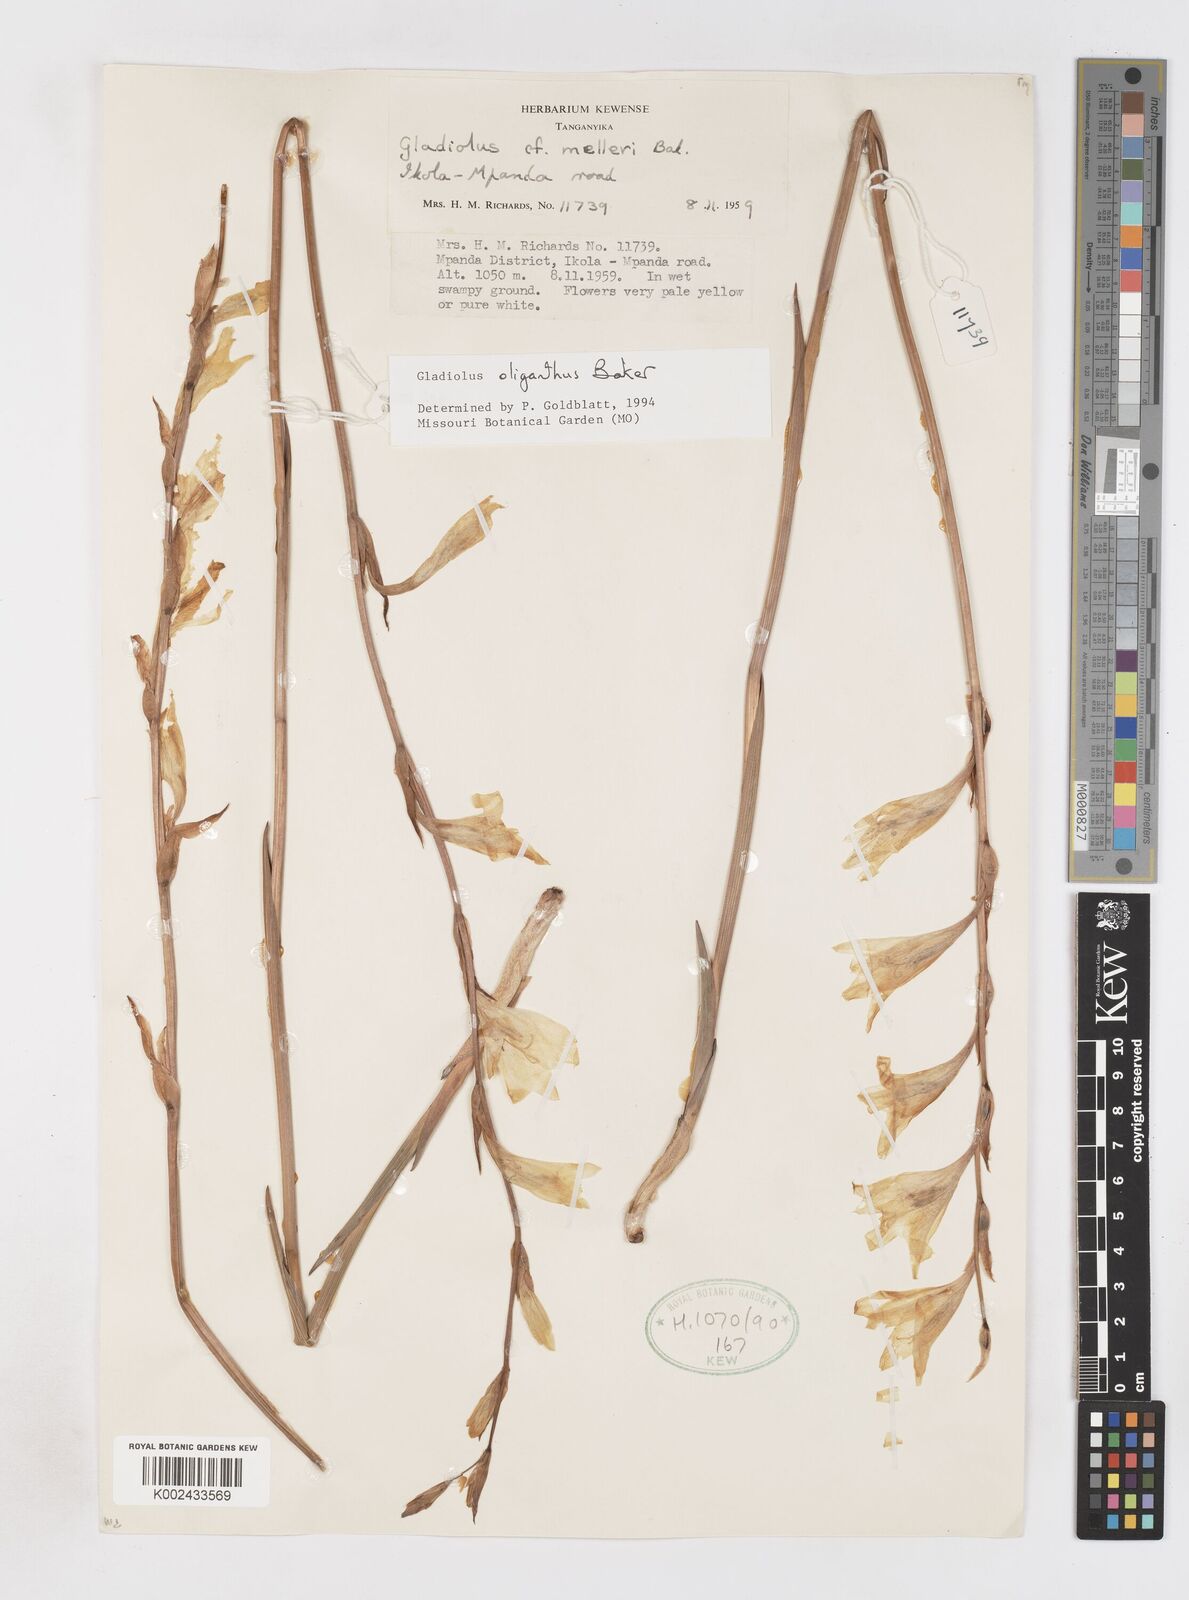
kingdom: Plantae
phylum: Tracheophyta
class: Liliopsida
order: Asparagales
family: Iridaceae
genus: Gladiolus
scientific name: Gladiolus oliganthus
